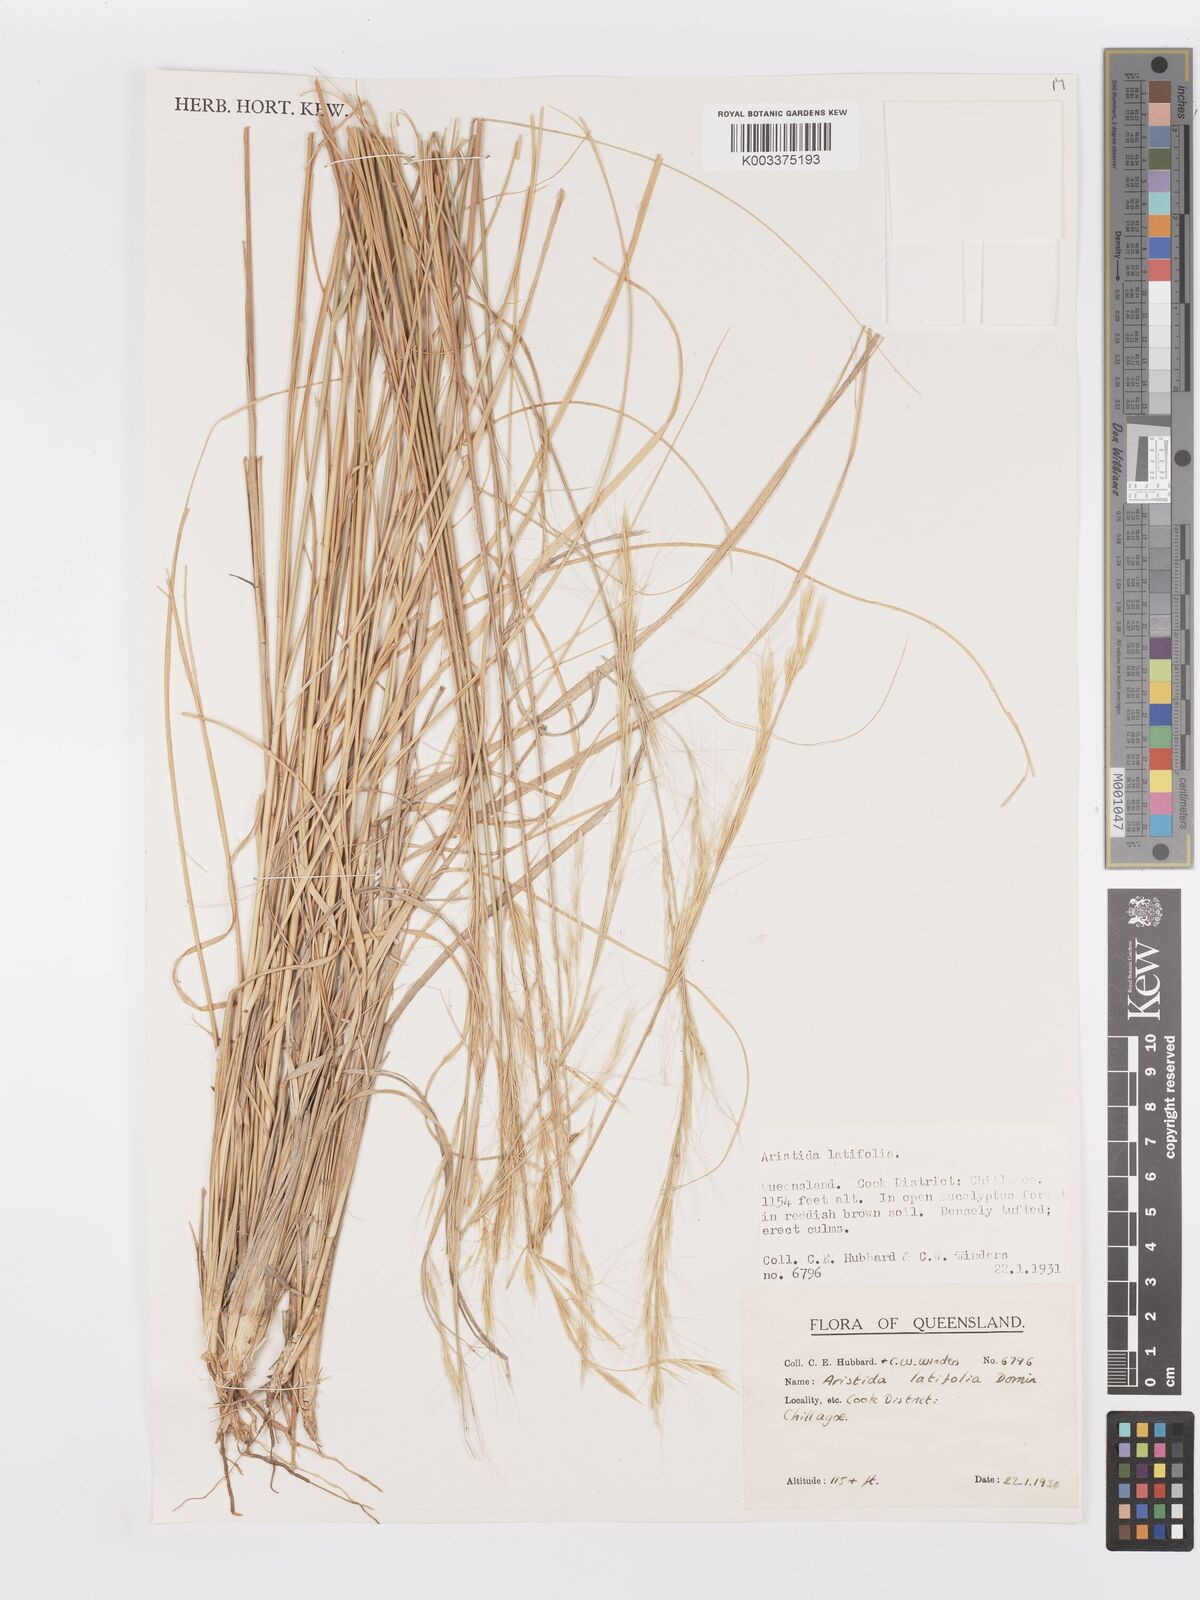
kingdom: Plantae
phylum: Tracheophyta
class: Liliopsida
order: Poales
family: Poaceae
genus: Aristida
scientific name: Aristida latifolia
